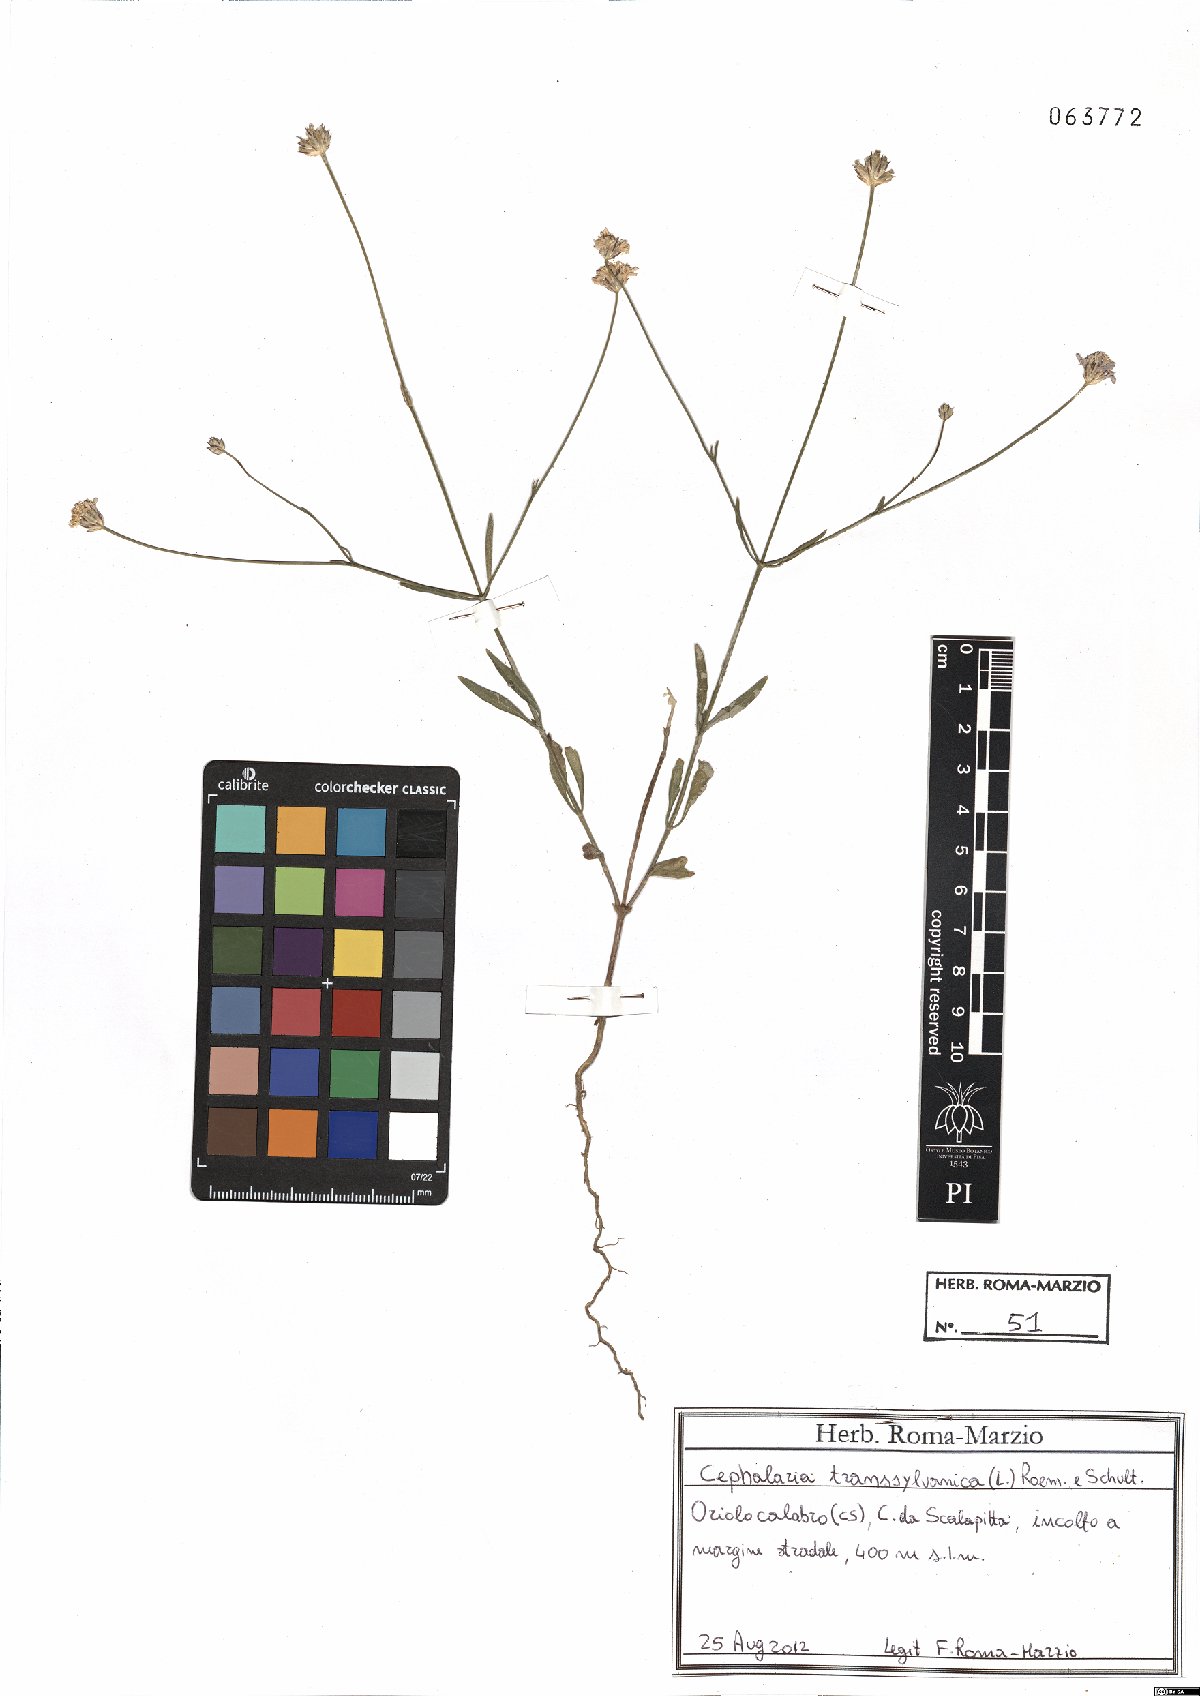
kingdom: Plantae
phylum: Tracheophyta
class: Magnoliopsida
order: Dipsacales
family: Caprifoliaceae
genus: Cephalaria
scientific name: Cephalaria transsylvanica
